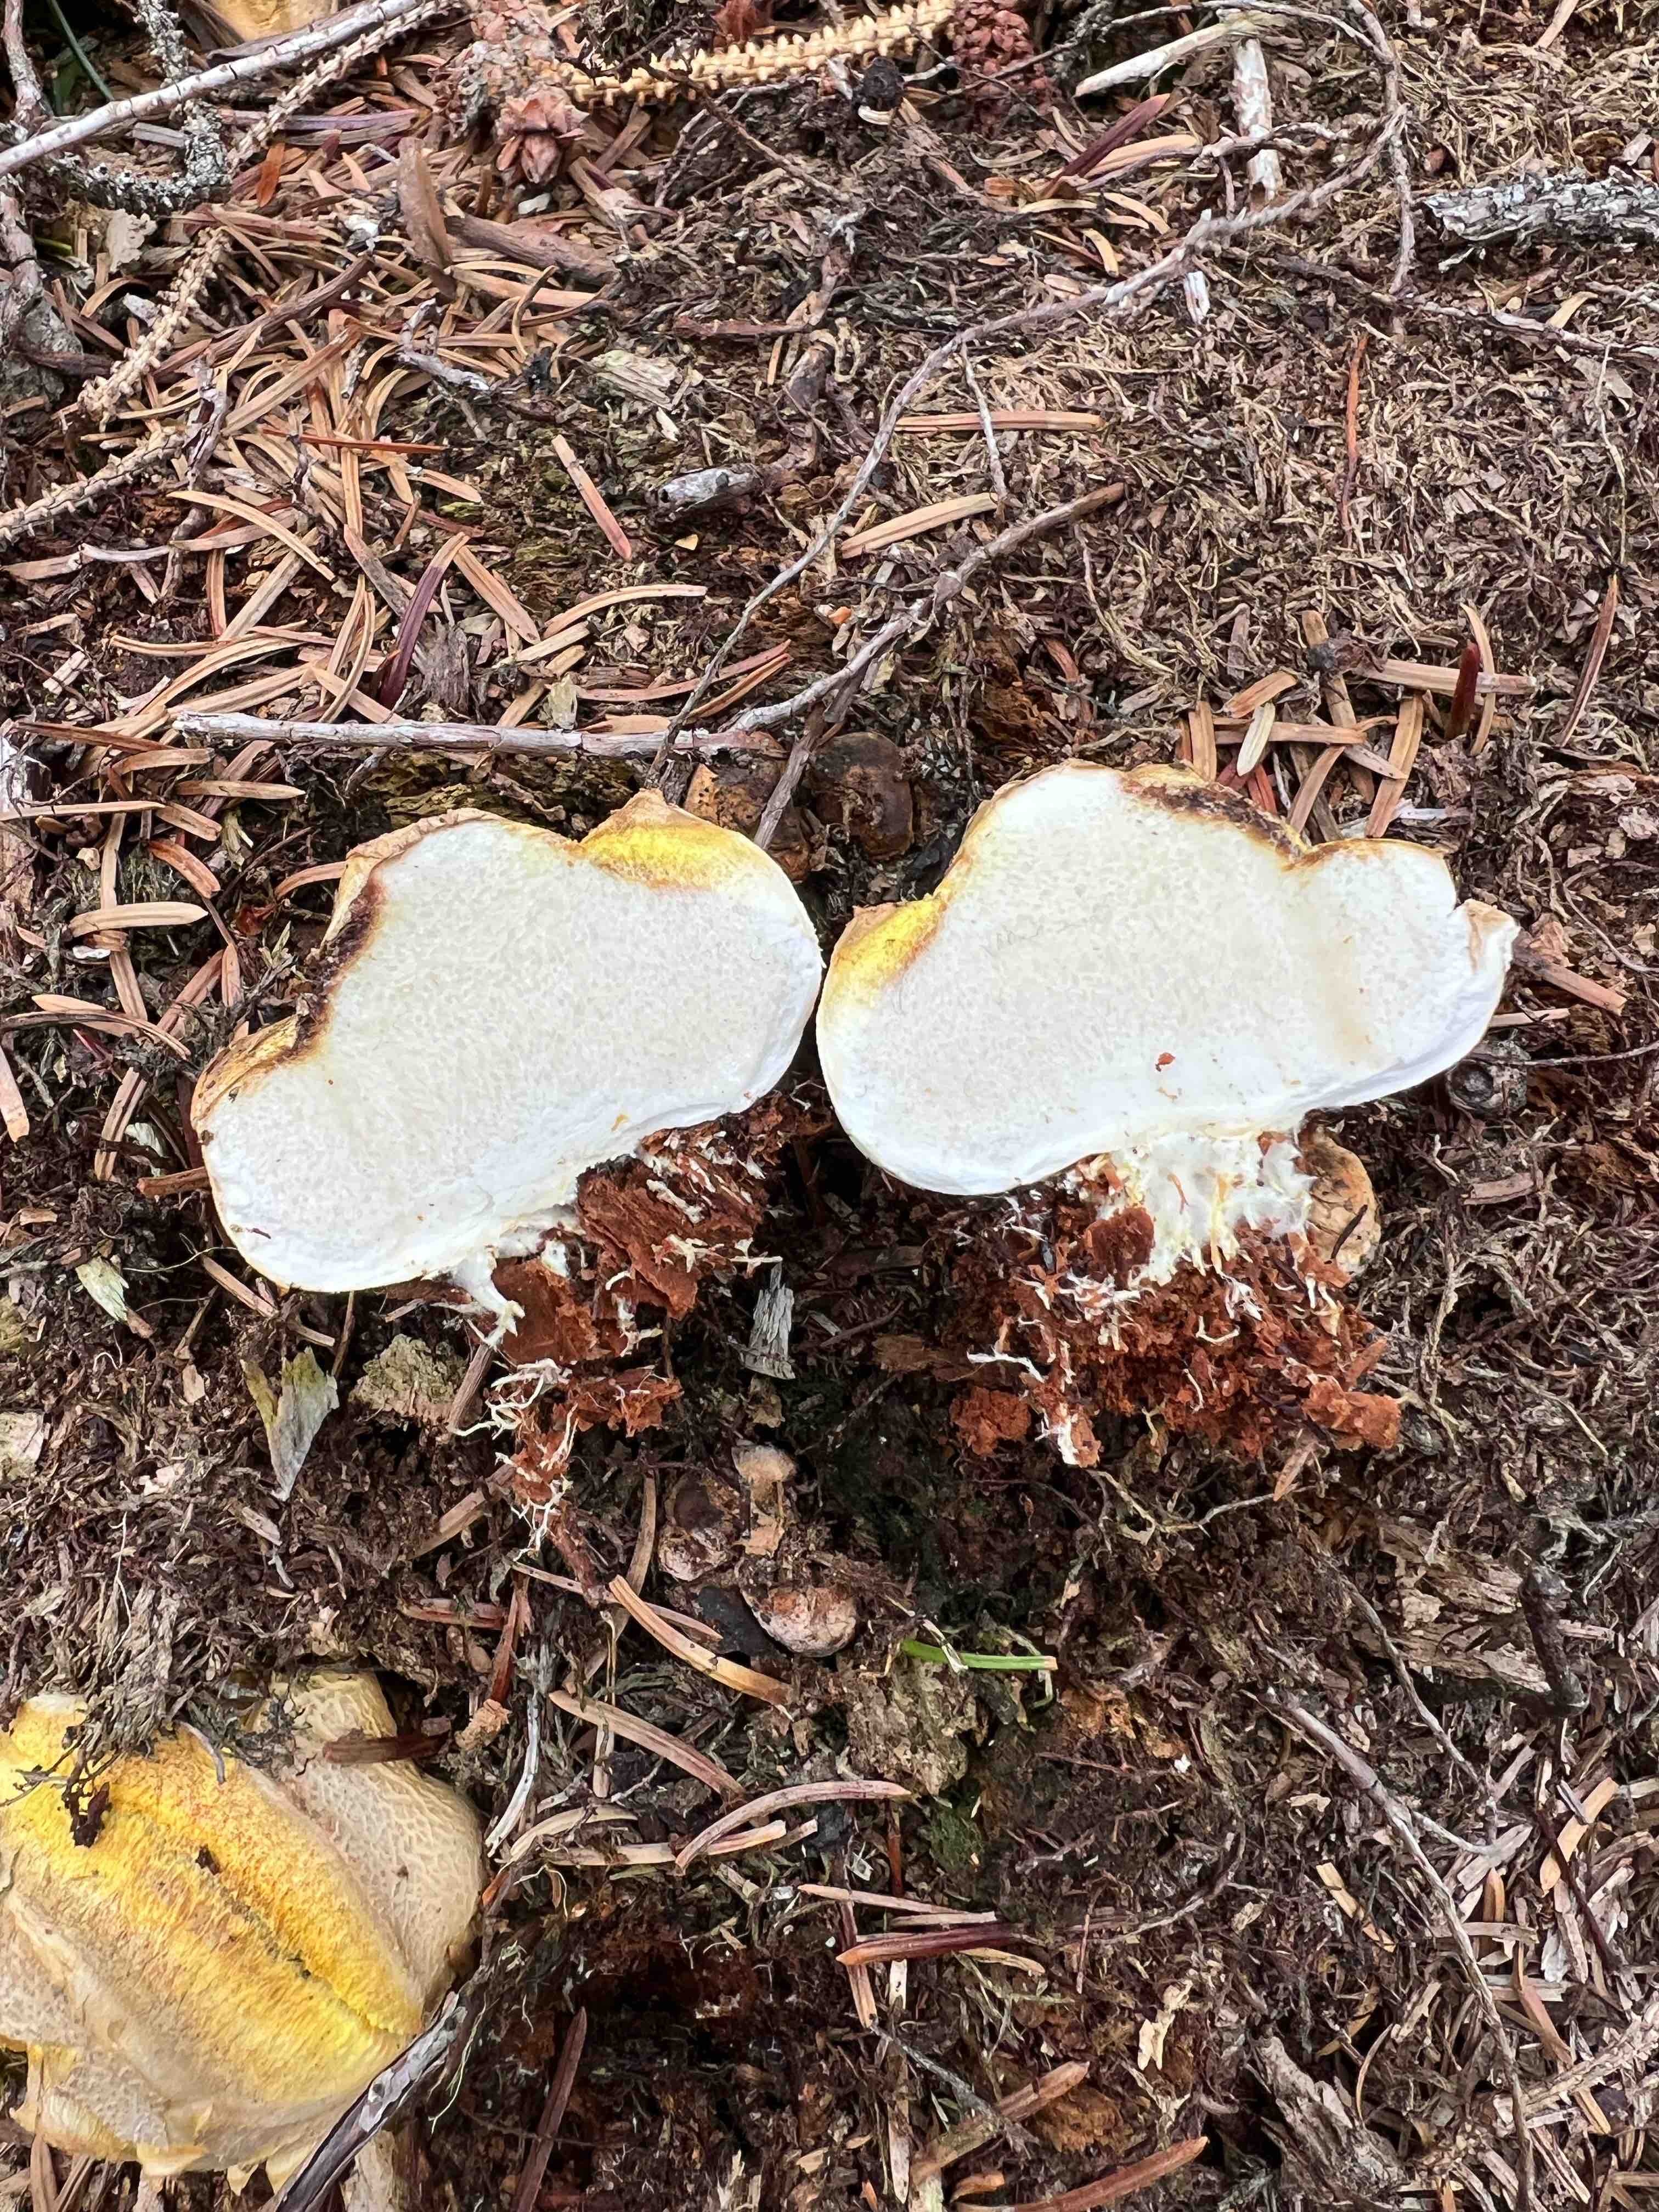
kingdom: Fungi
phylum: Basidiomycota
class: Agaricomycetes
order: Boletales
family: Sclerodermataceae
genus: Scleroderma
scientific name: Scleroderma citrinum
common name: almindelig bruskbold
